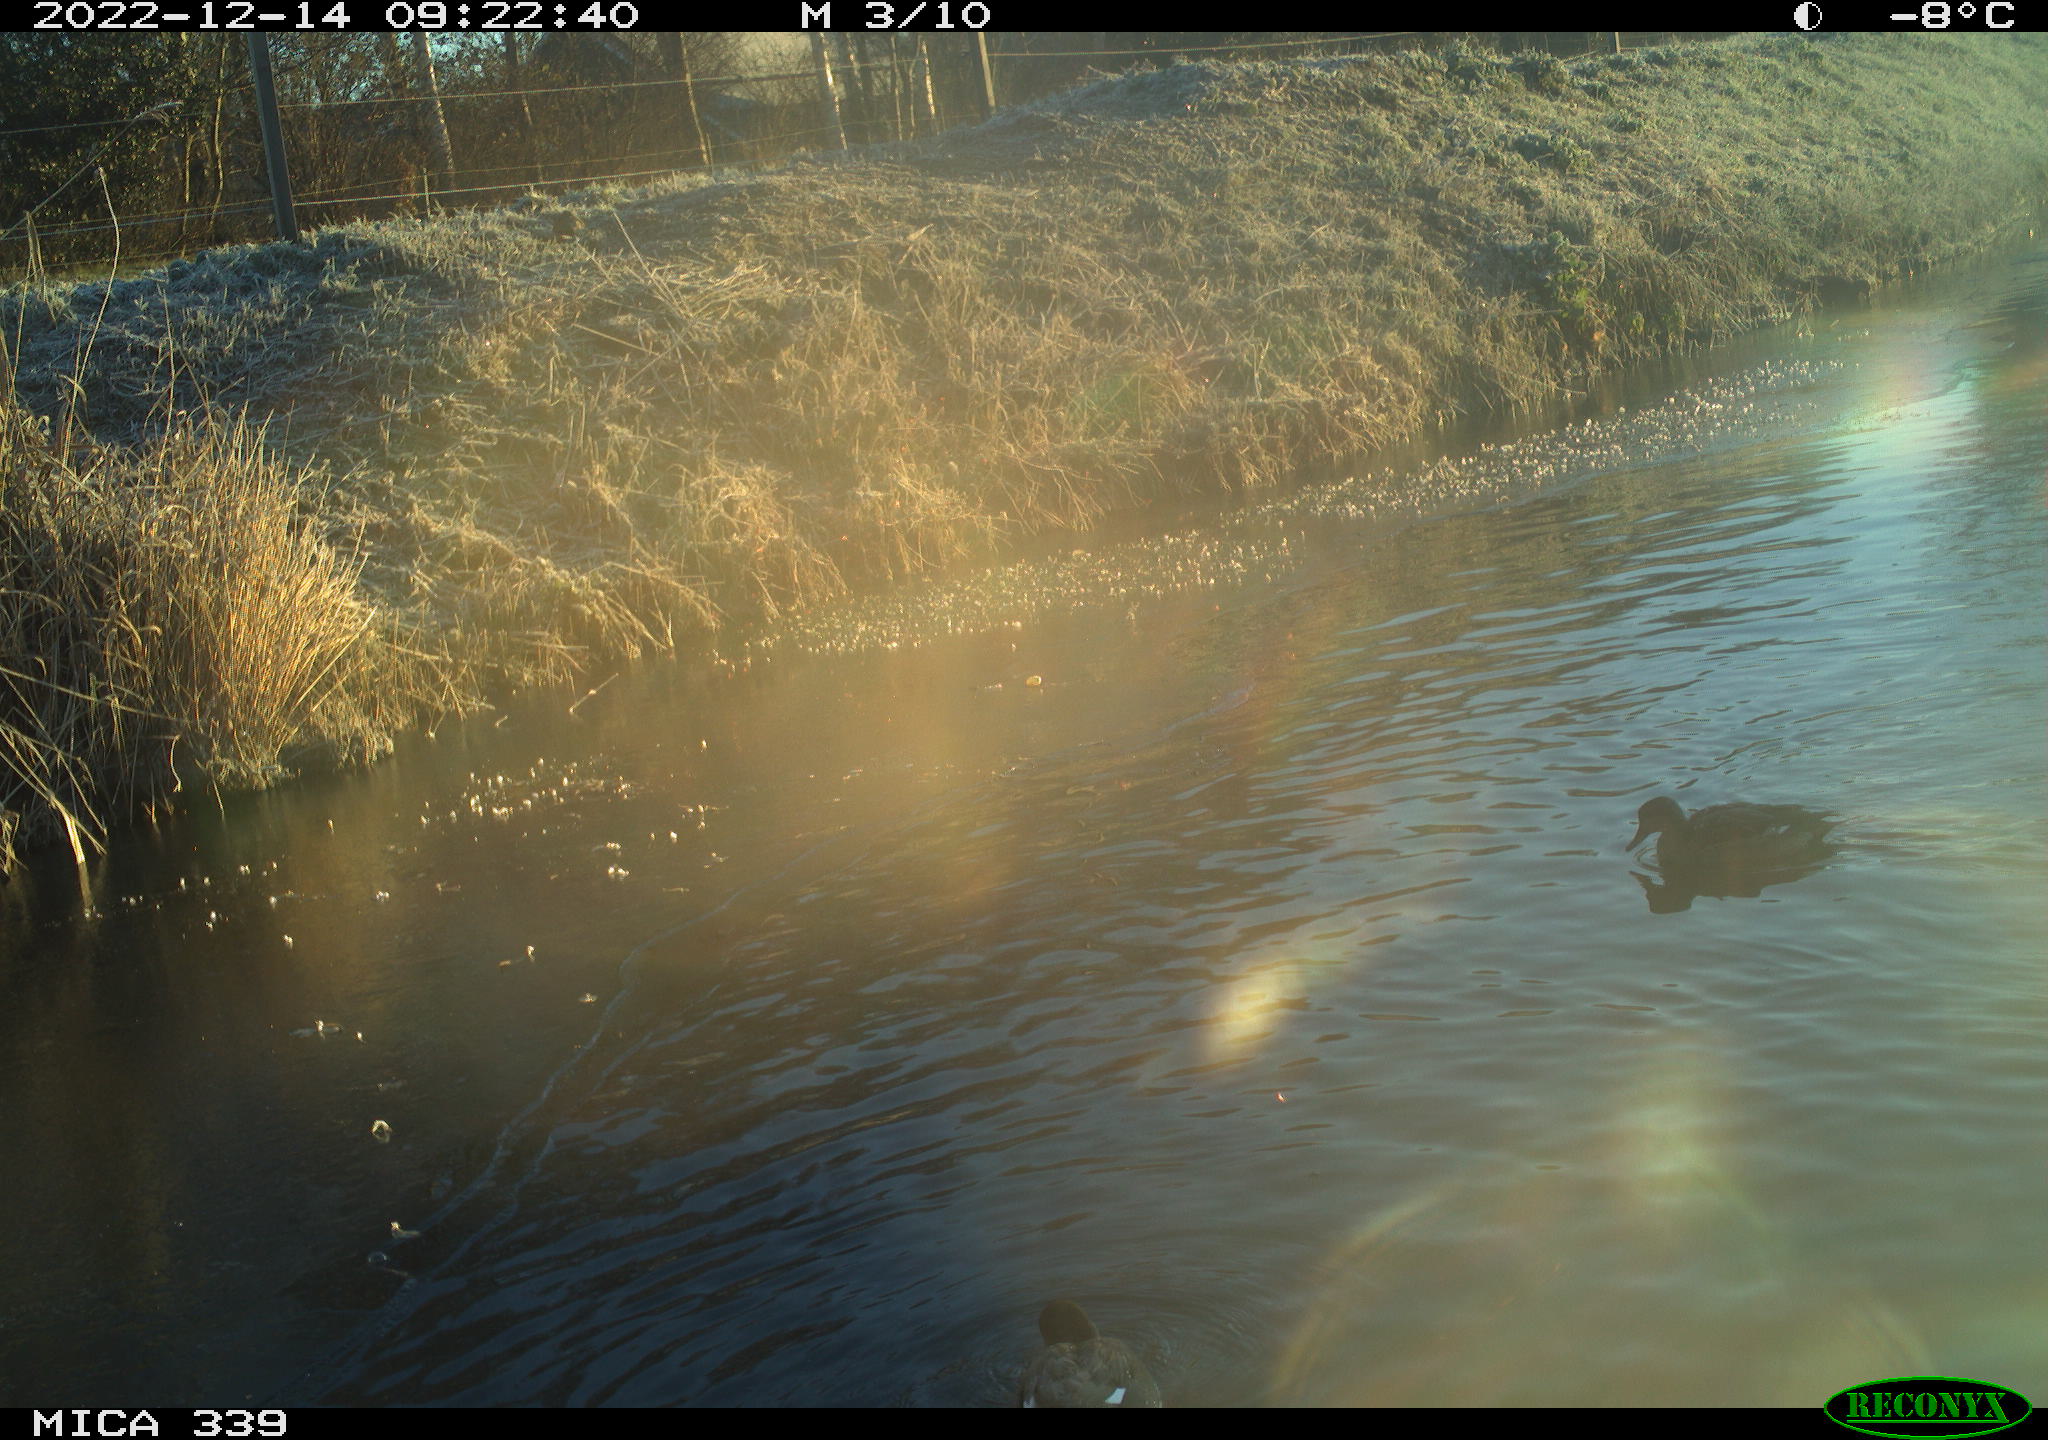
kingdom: Animalia
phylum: Chordata
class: Aves
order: Anseriformes
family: Anatidae
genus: Anas
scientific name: Anas
